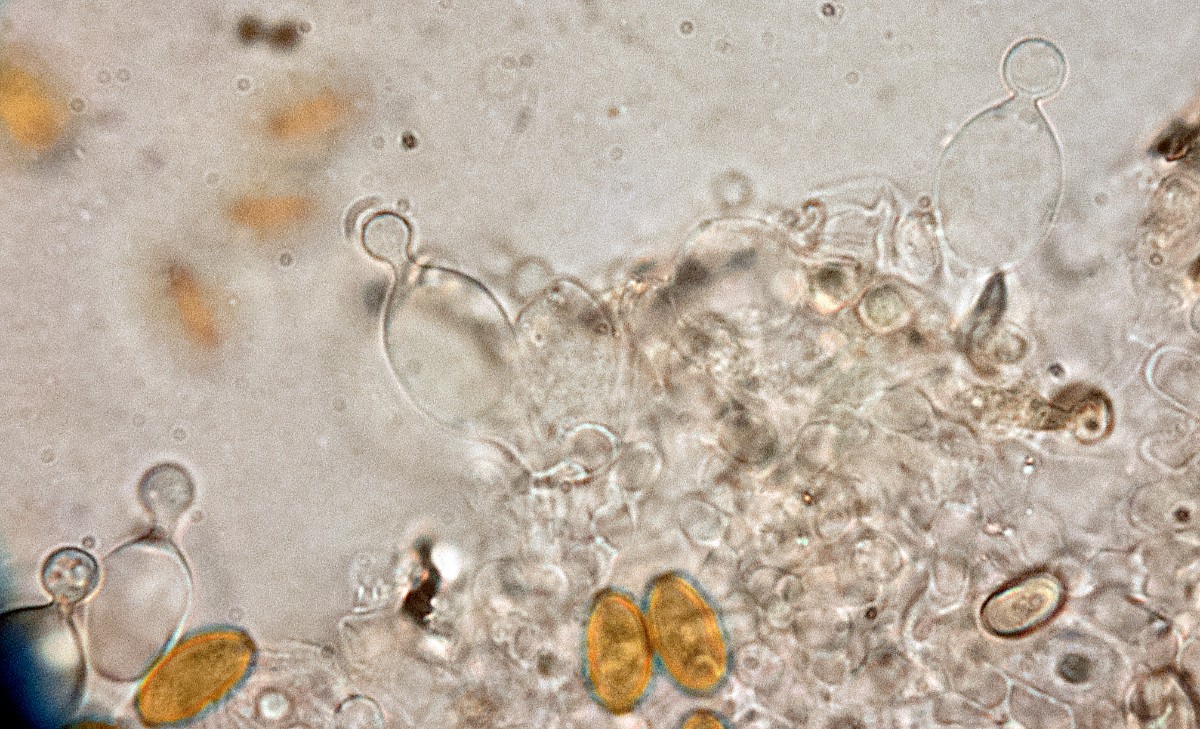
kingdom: Fungi
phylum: Basidiomycota
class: Agaricomycetes
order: Agaricales
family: Bolbitiaceae
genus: Conocybe
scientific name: Conocybe fuscimarginata
